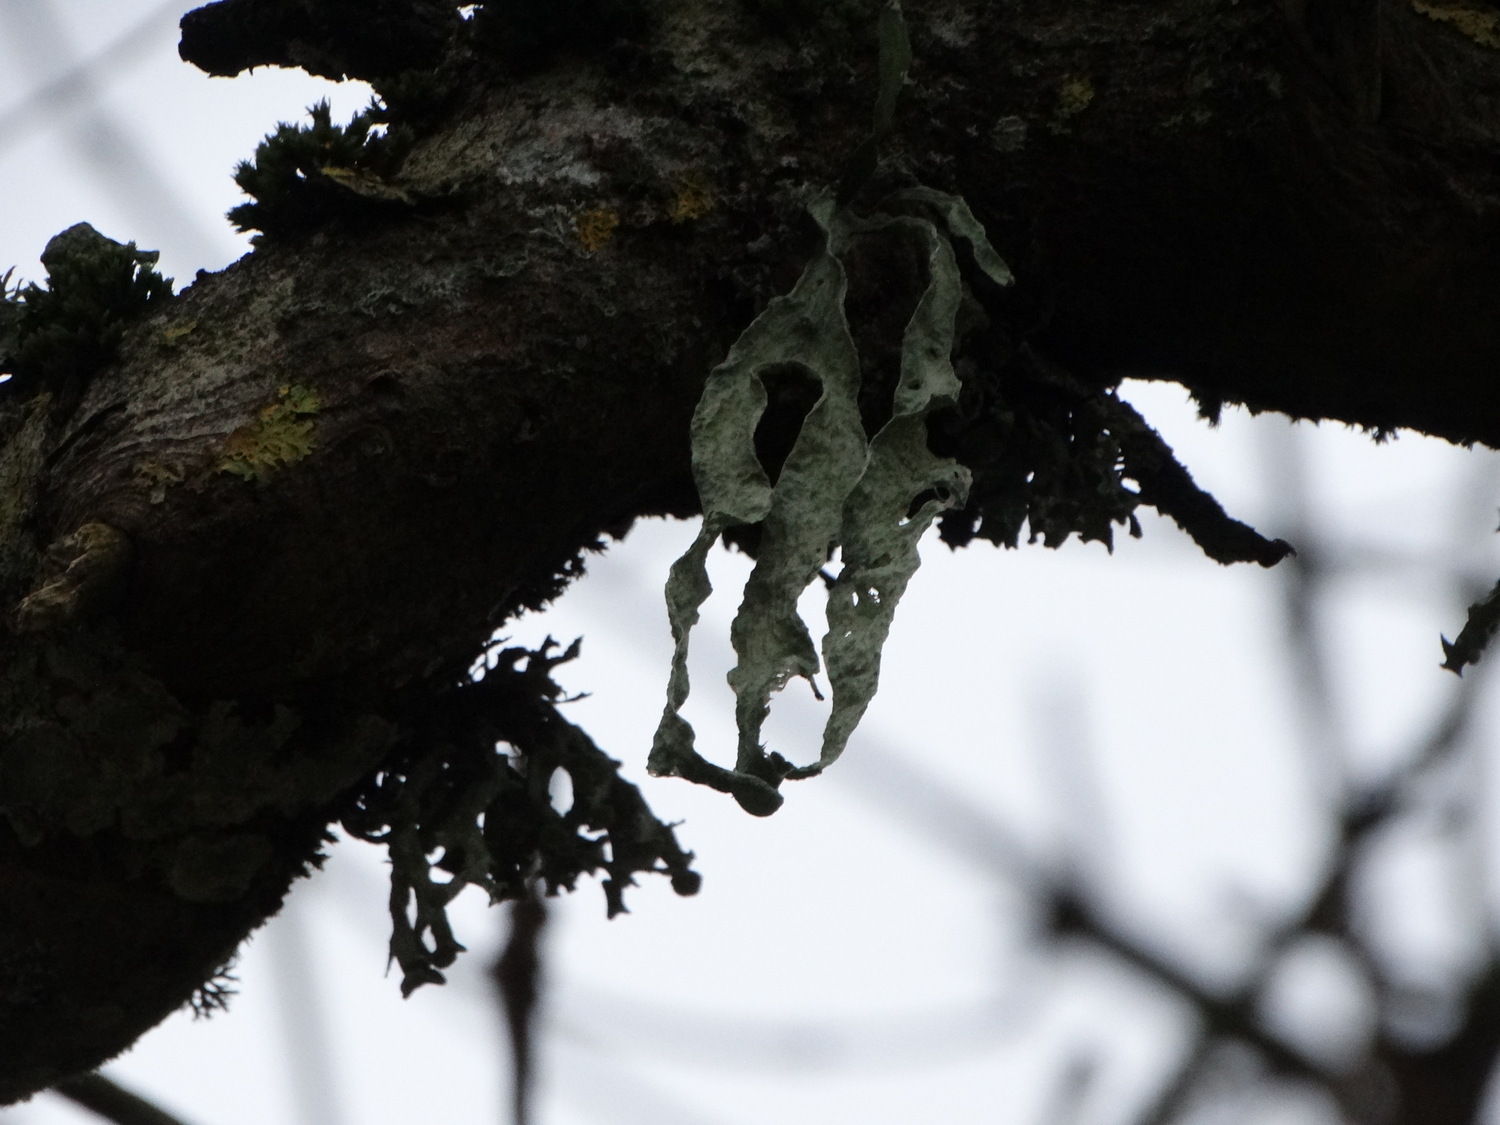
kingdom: Fungi
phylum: Ascomycota
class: Lecanoromycetes
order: Lecanorales
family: Ramalinaceae
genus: Ramalina
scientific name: Ramalina fraxinea
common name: stor grenlav
